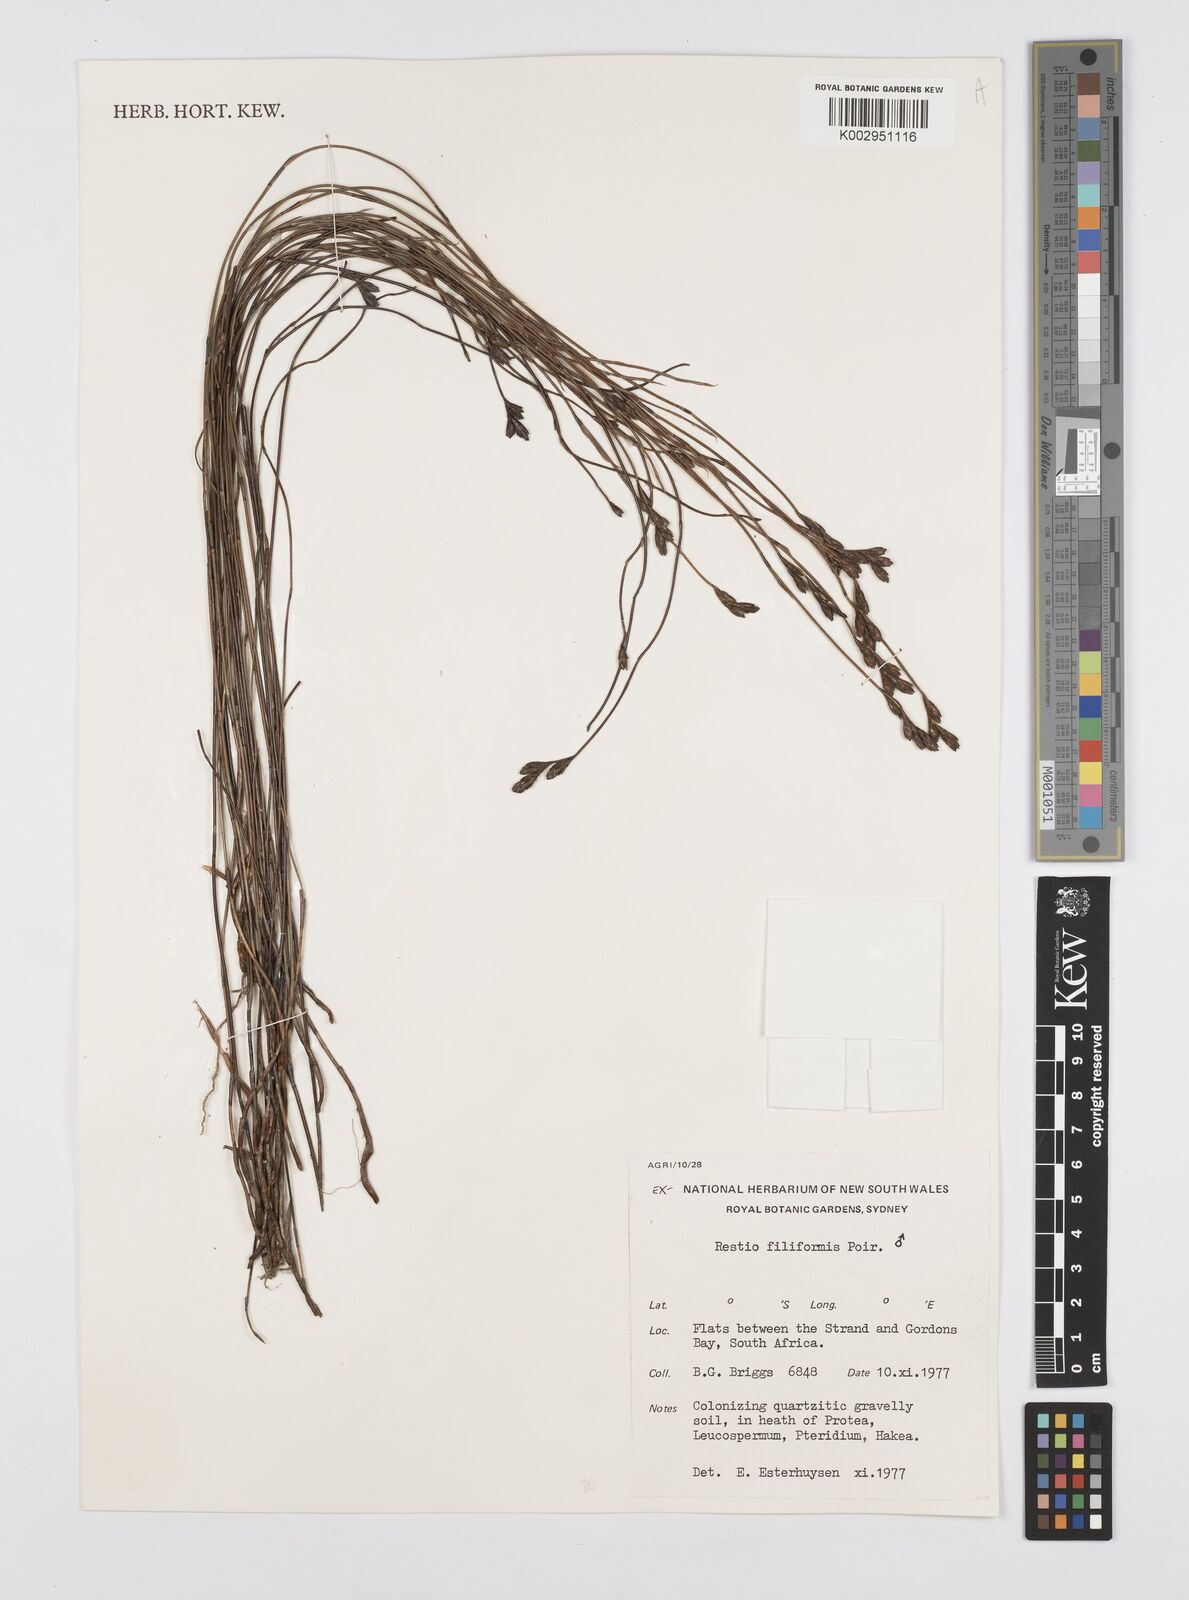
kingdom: Plantae
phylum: Tracheophyta
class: Liliopsida
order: Poales
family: Restionaceae
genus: Restio
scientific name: Restio filiformis
